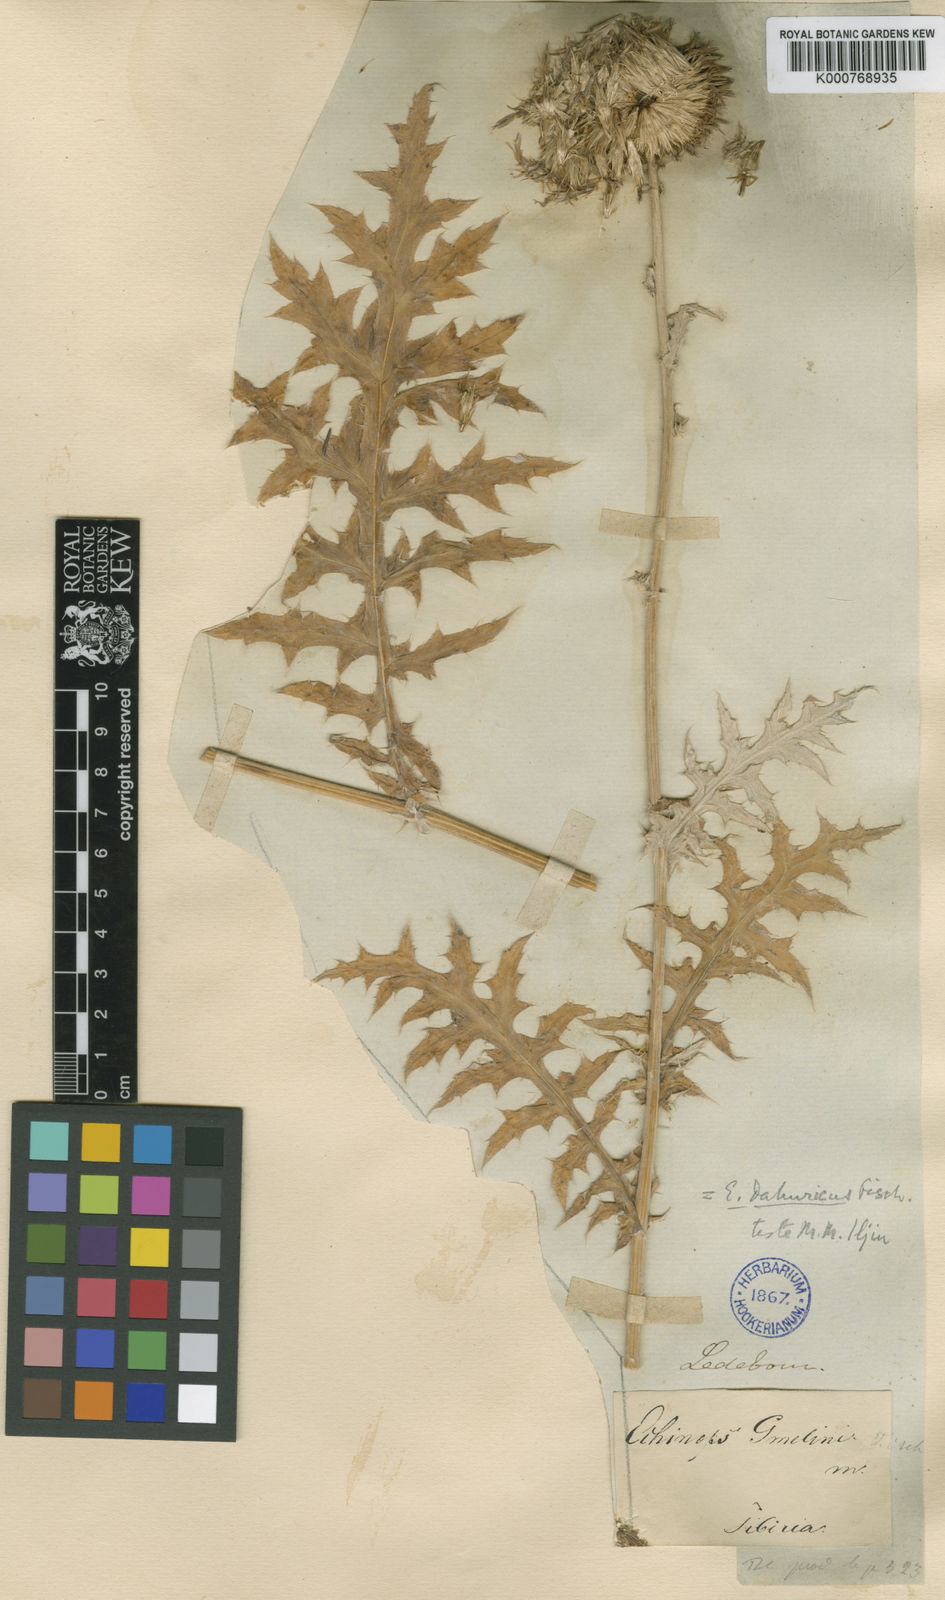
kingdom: Plantae
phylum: Tracheophyta
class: Magnoliopsida
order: Asterales
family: Asteraceae
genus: Echinops
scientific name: Echinops davuricus
